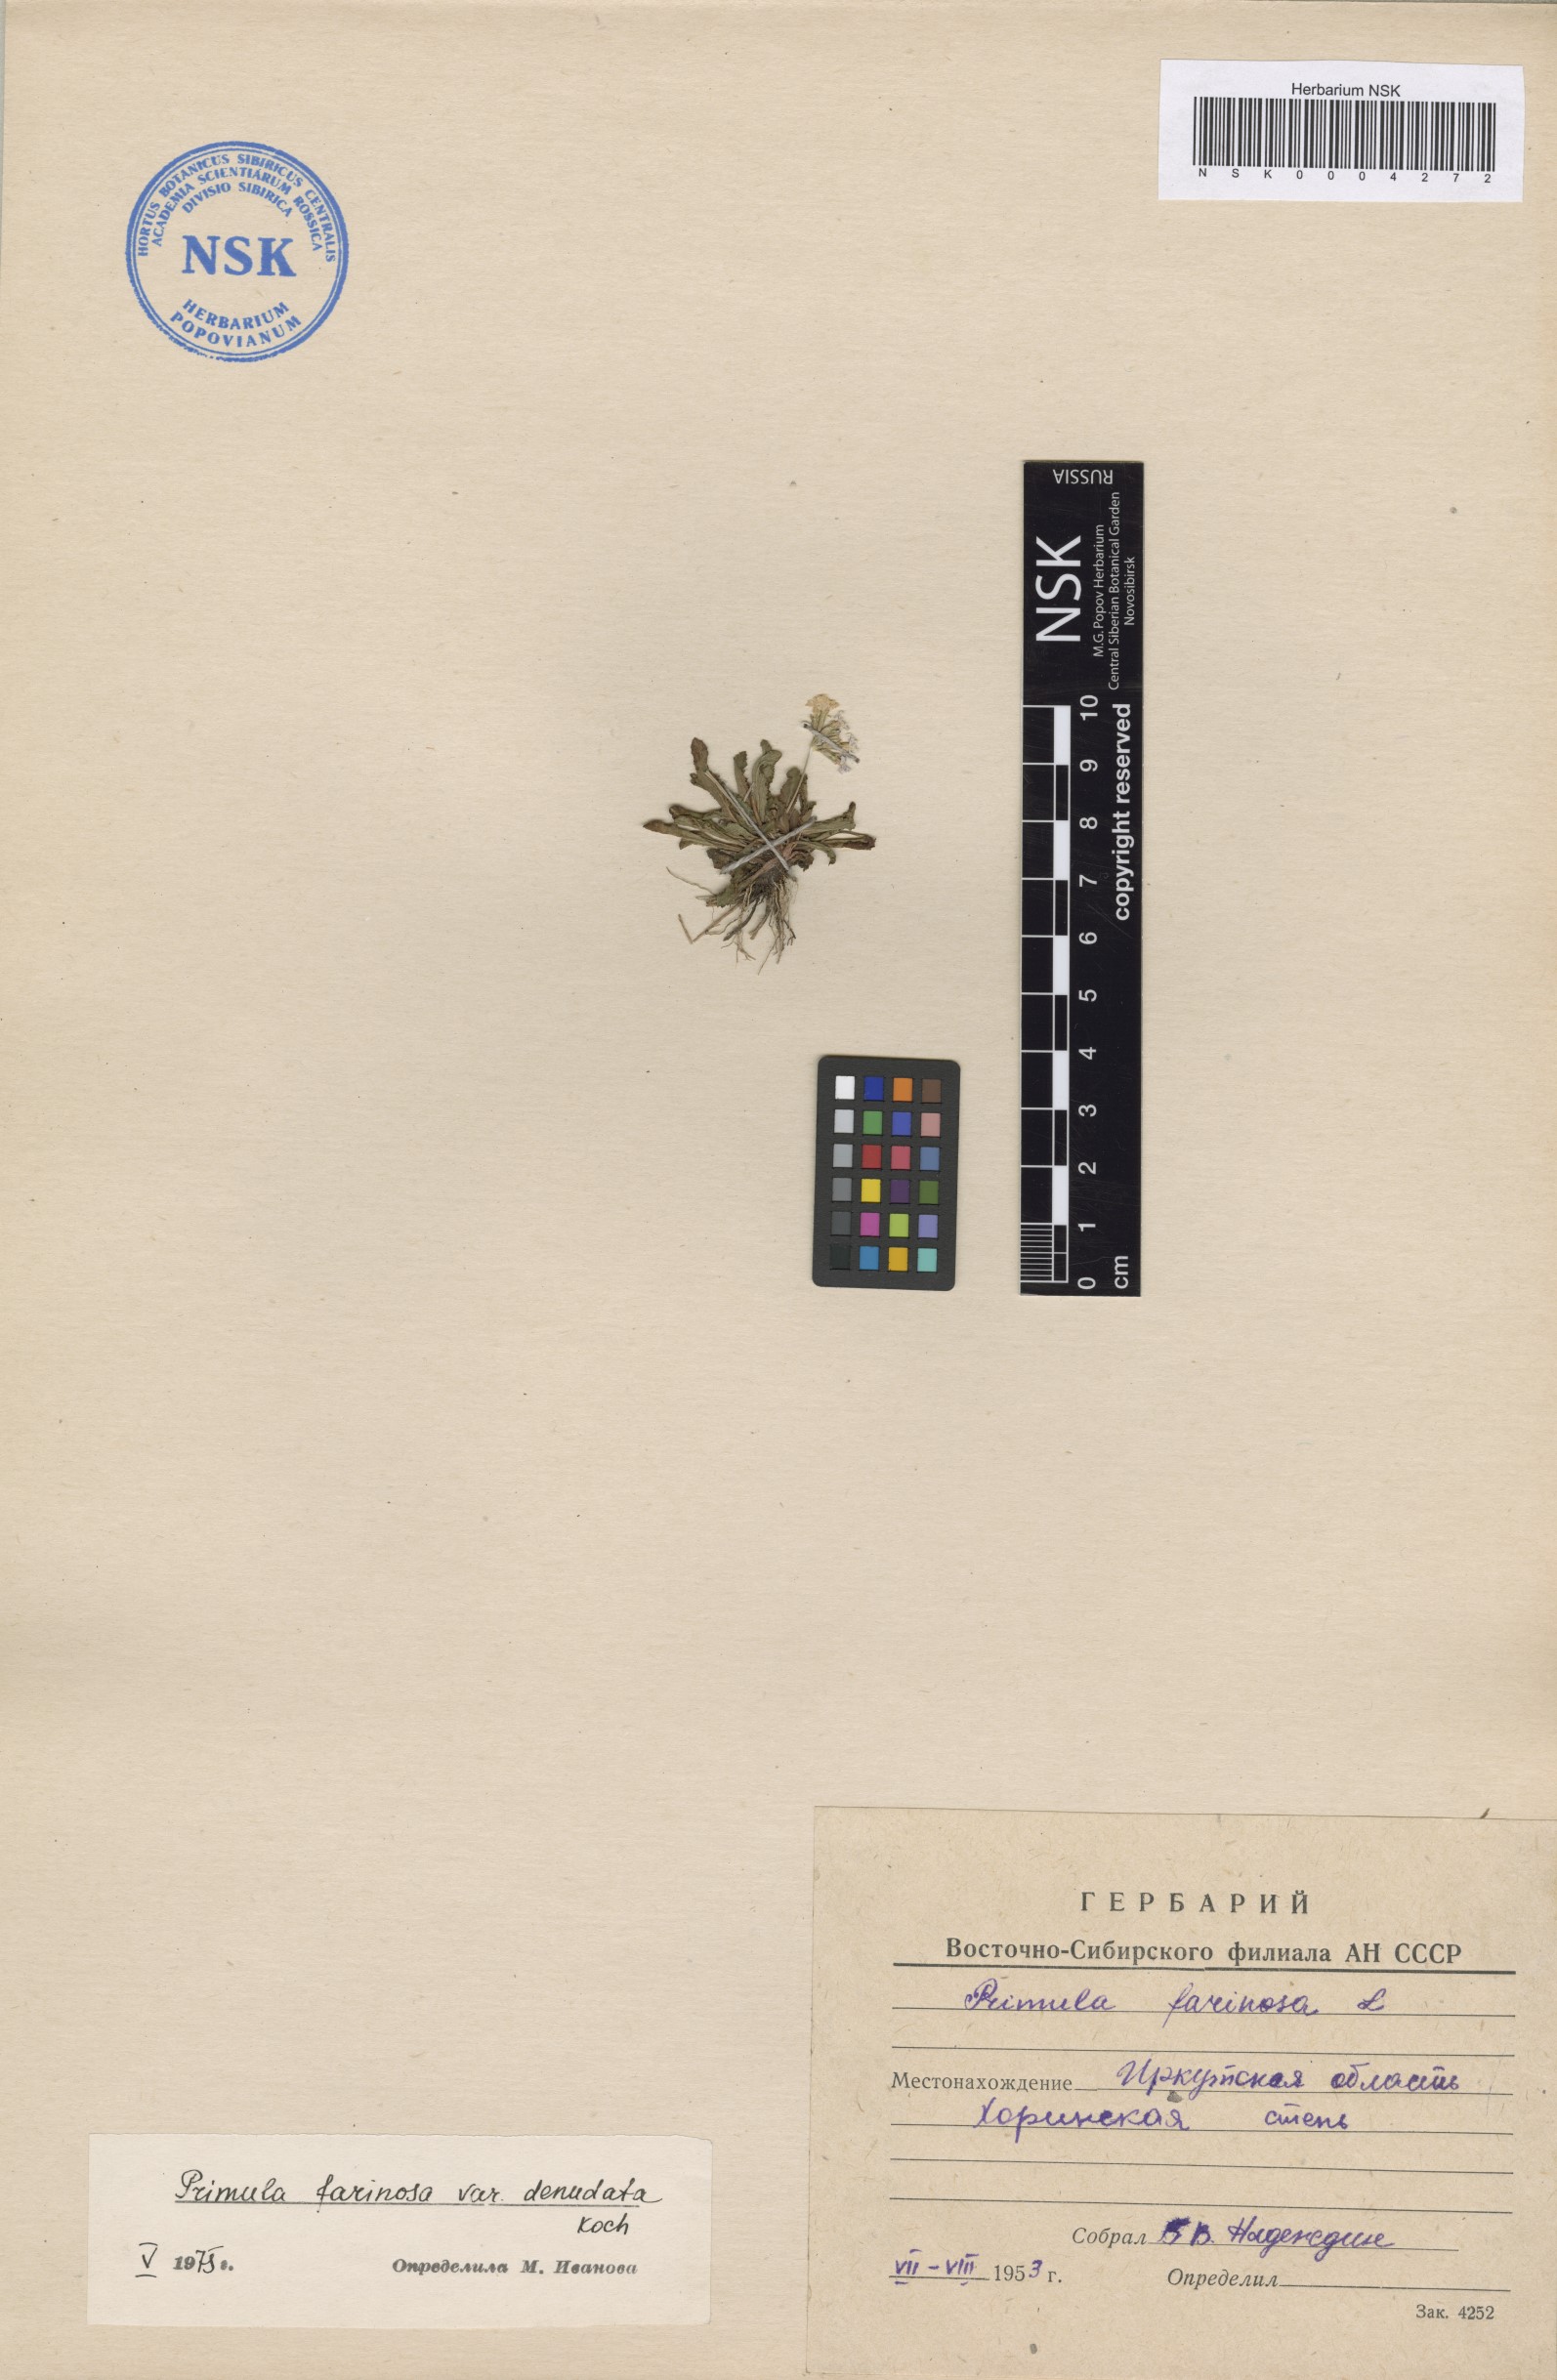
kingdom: Plantae
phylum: Tracheophyta
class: Magnoliopsida
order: Ericales
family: Primulaceae
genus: Primula
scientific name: Primula serrata
